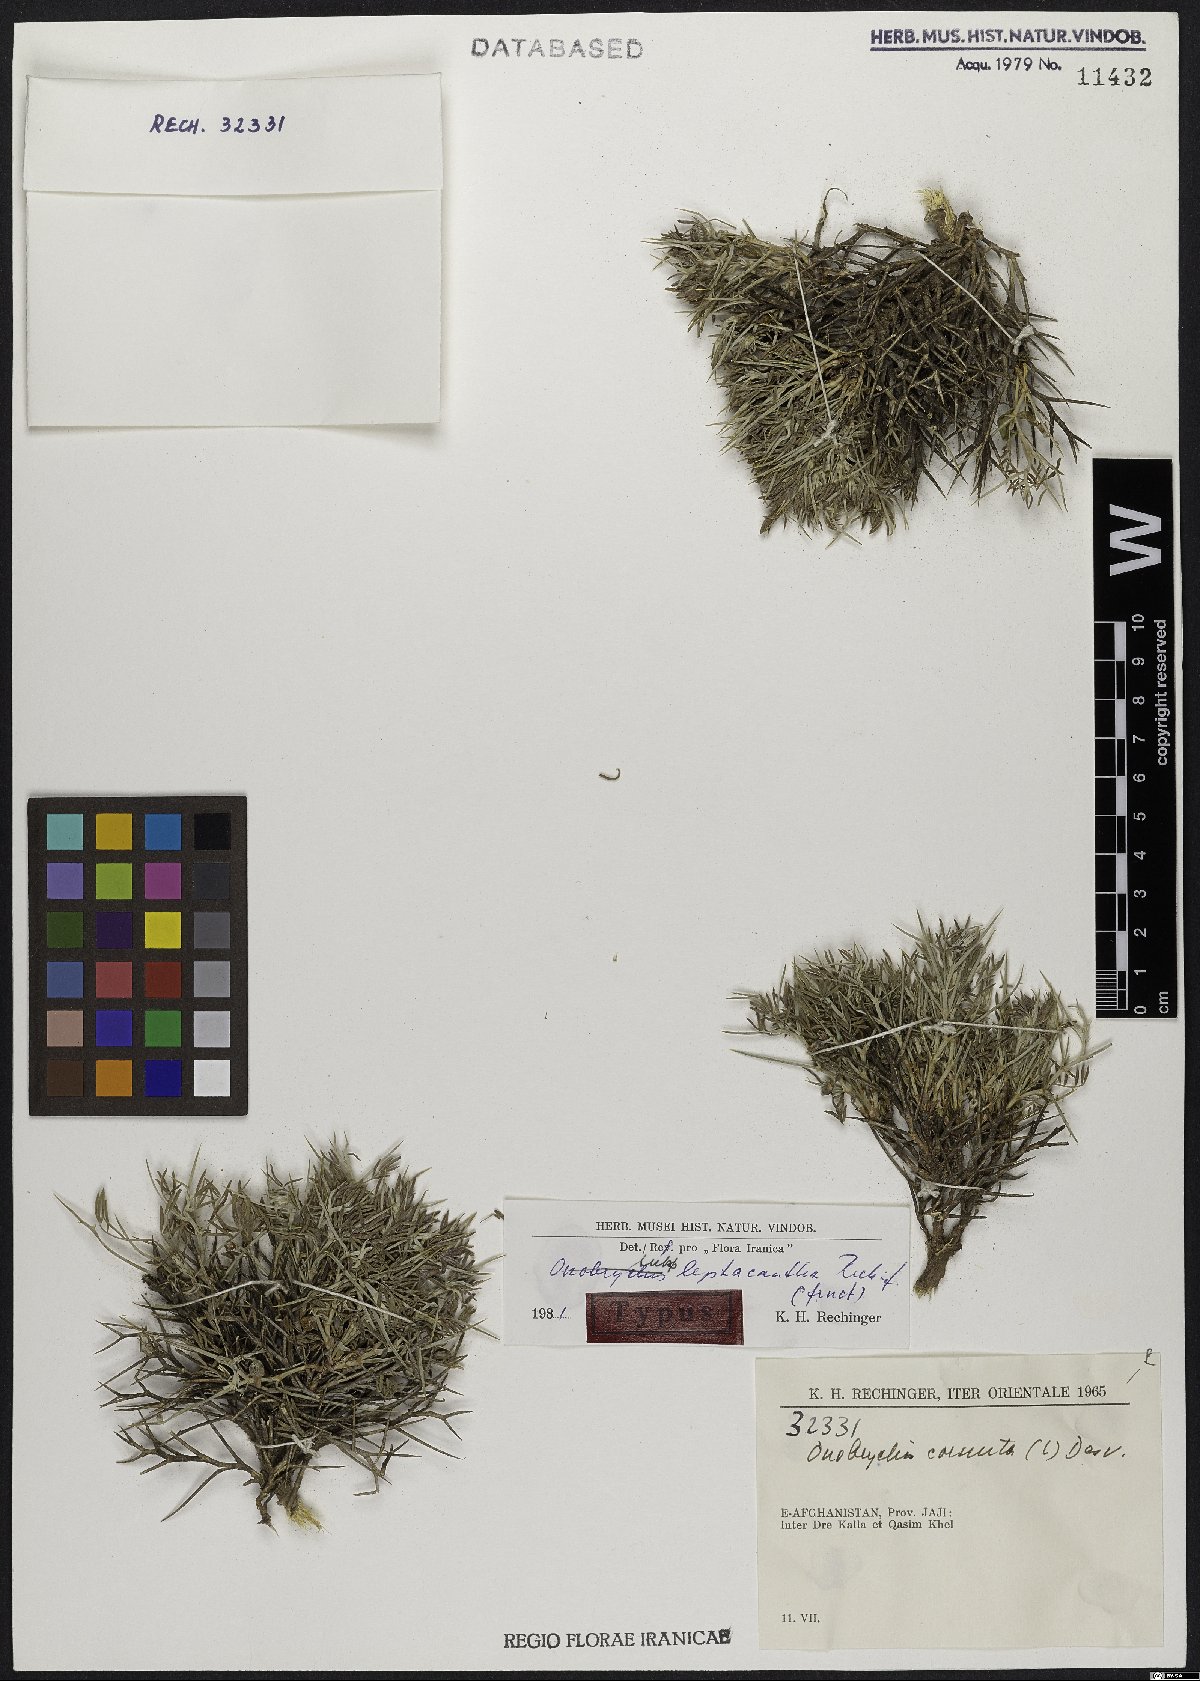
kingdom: Plantae
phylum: Tracheophyta
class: Magnoliopsida
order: Fabales
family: Fabaceae
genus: Onobrychis
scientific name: Onobrychis cornuta
